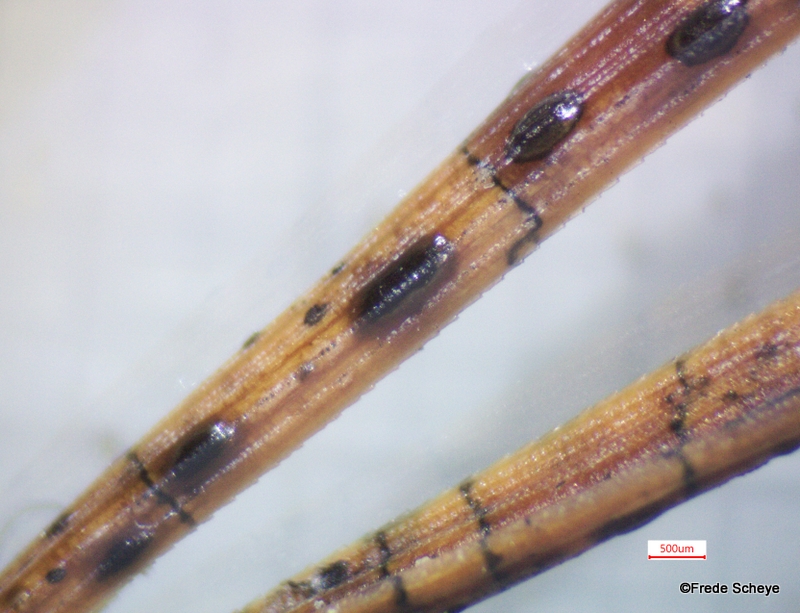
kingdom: Fungi
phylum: Ascomycota
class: Leotiomycetes
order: Rhytismatales
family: Rhytismataceae
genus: Lophodermium
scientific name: Lophodermium pinastri
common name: fyrre-fureplet
